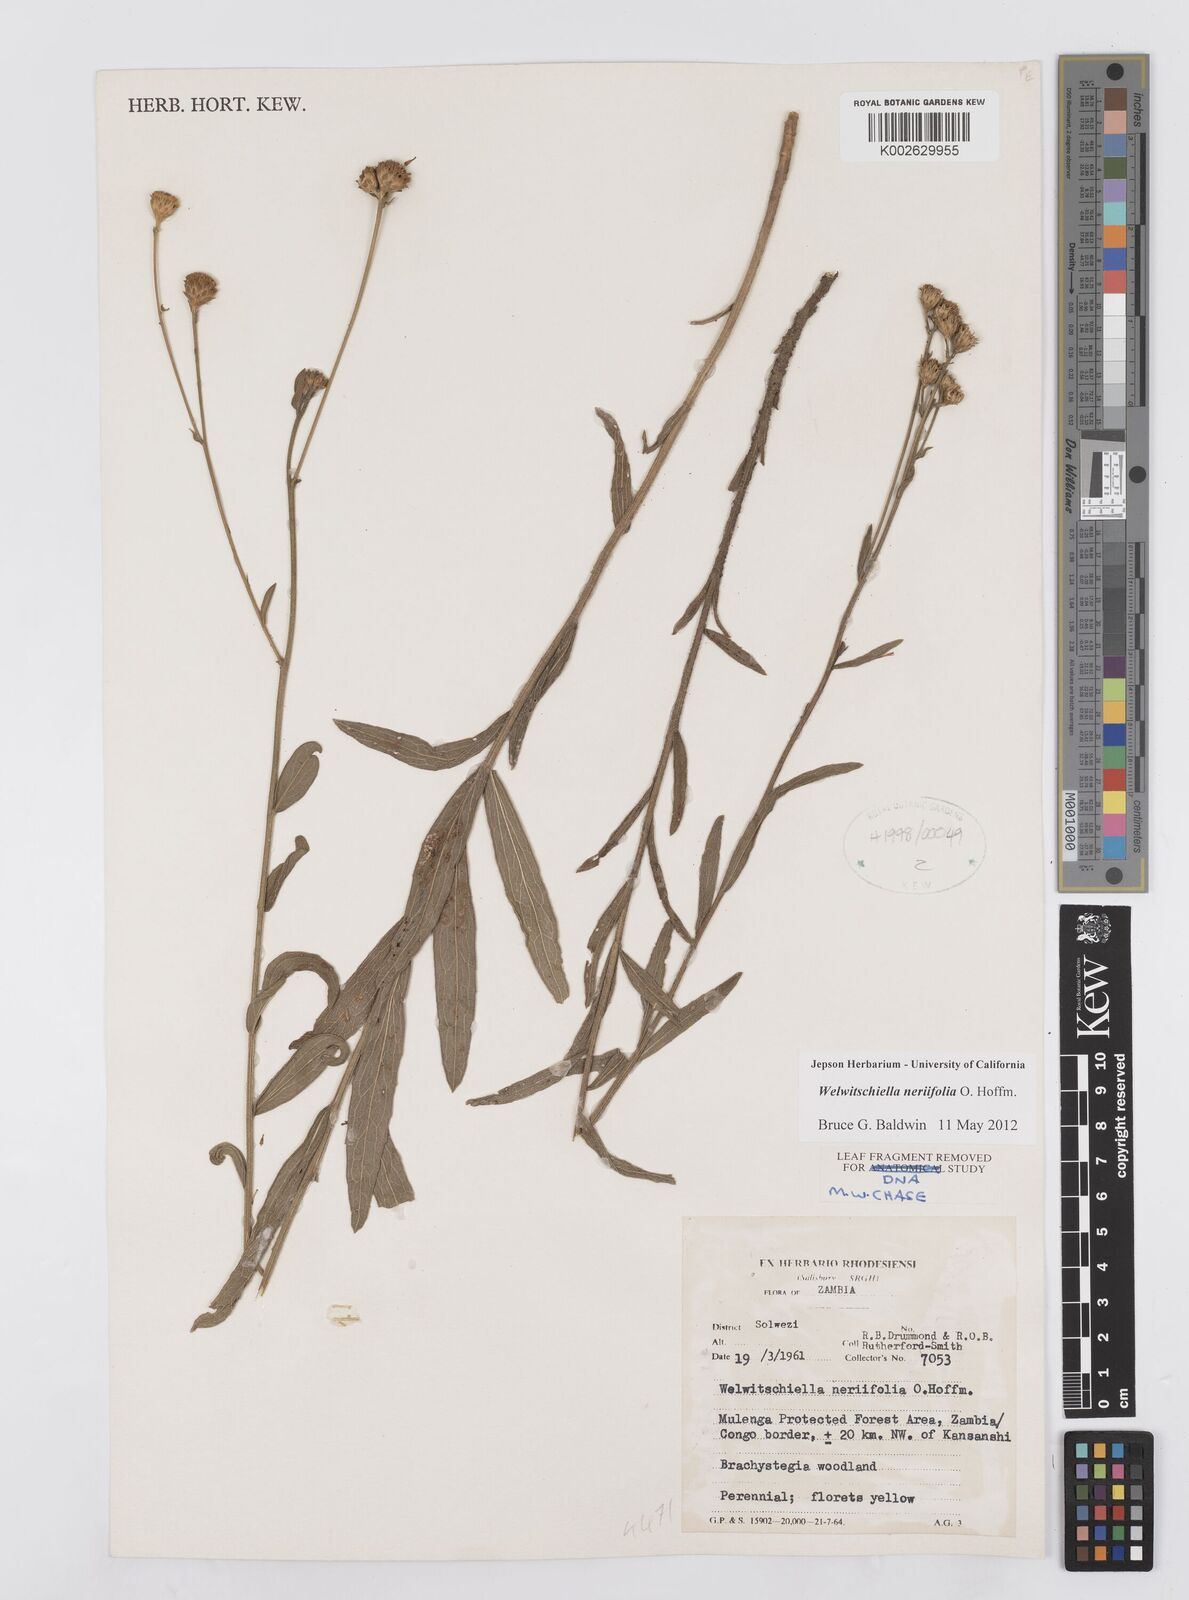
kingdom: Plantae
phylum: Tracheophyta
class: Magnoliopsida
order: Asterales
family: Asteraceae
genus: Welwitschiella
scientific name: Welwitschiella neriifolia
